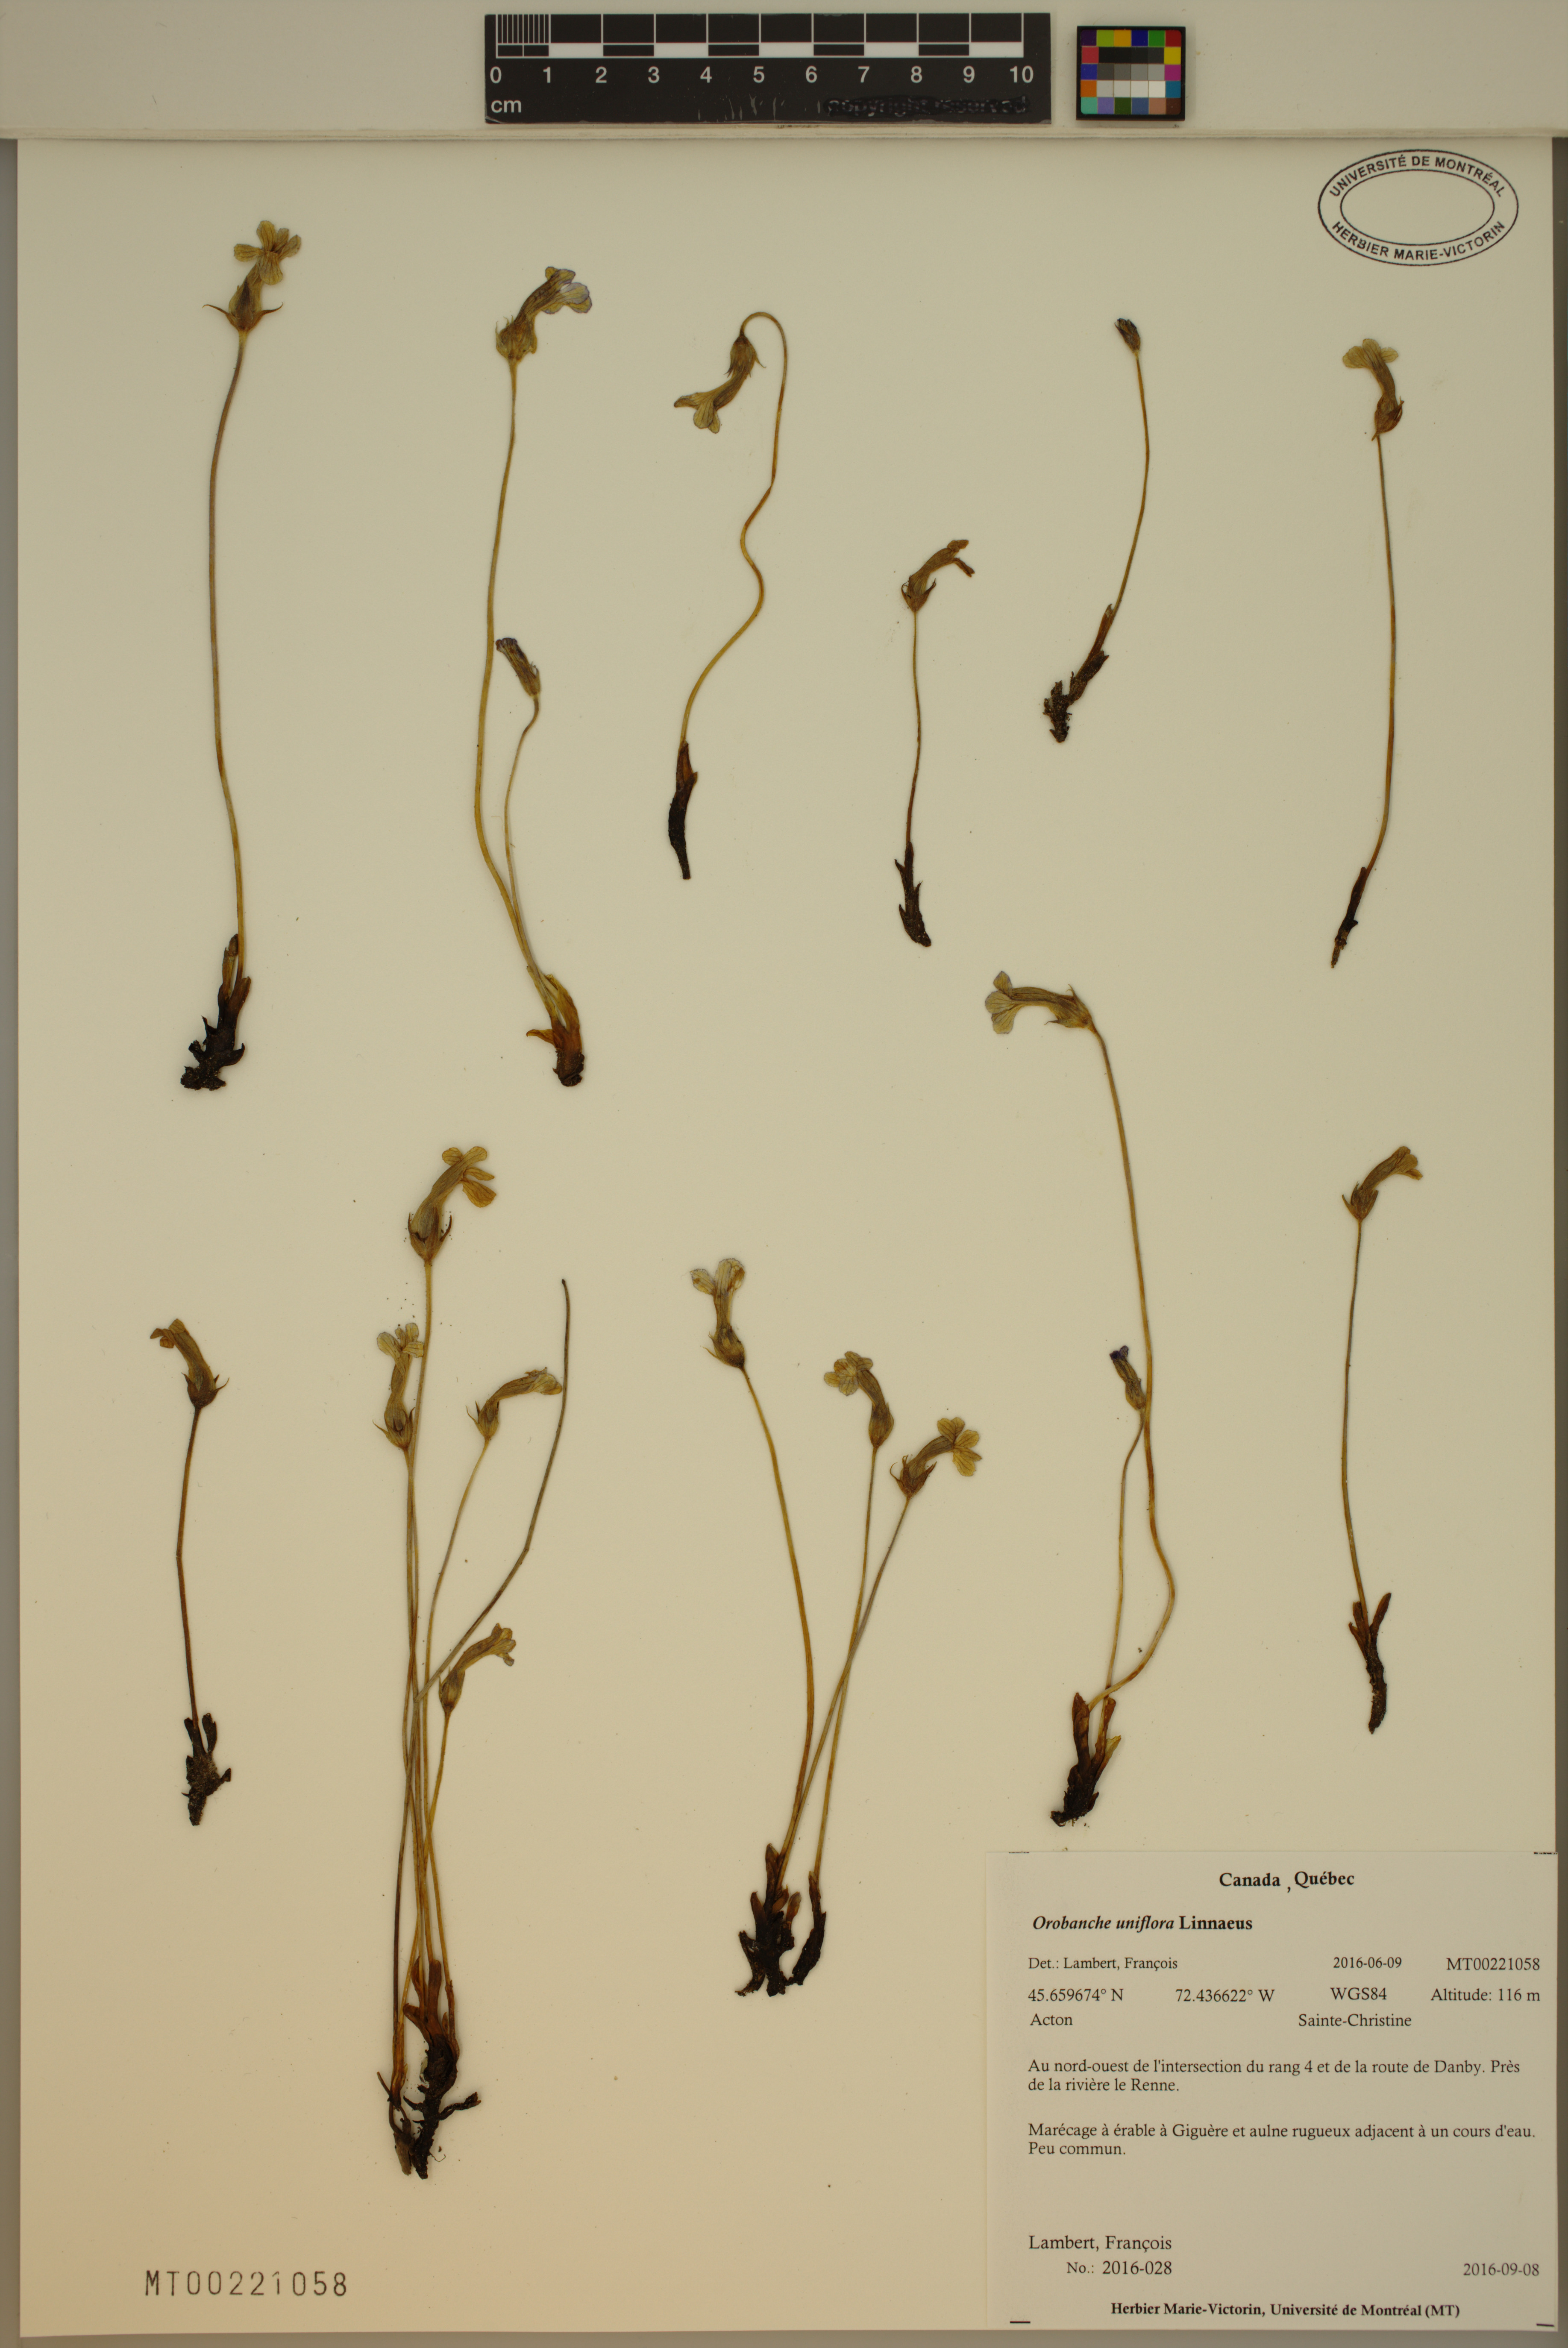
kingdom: Plantae
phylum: Tracheophyta
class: Magnoliopsida
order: Lamiales
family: Orobanchaceae
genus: Aphyllon
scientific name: Aphyllon uniflorum
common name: One-flowered broomrape
